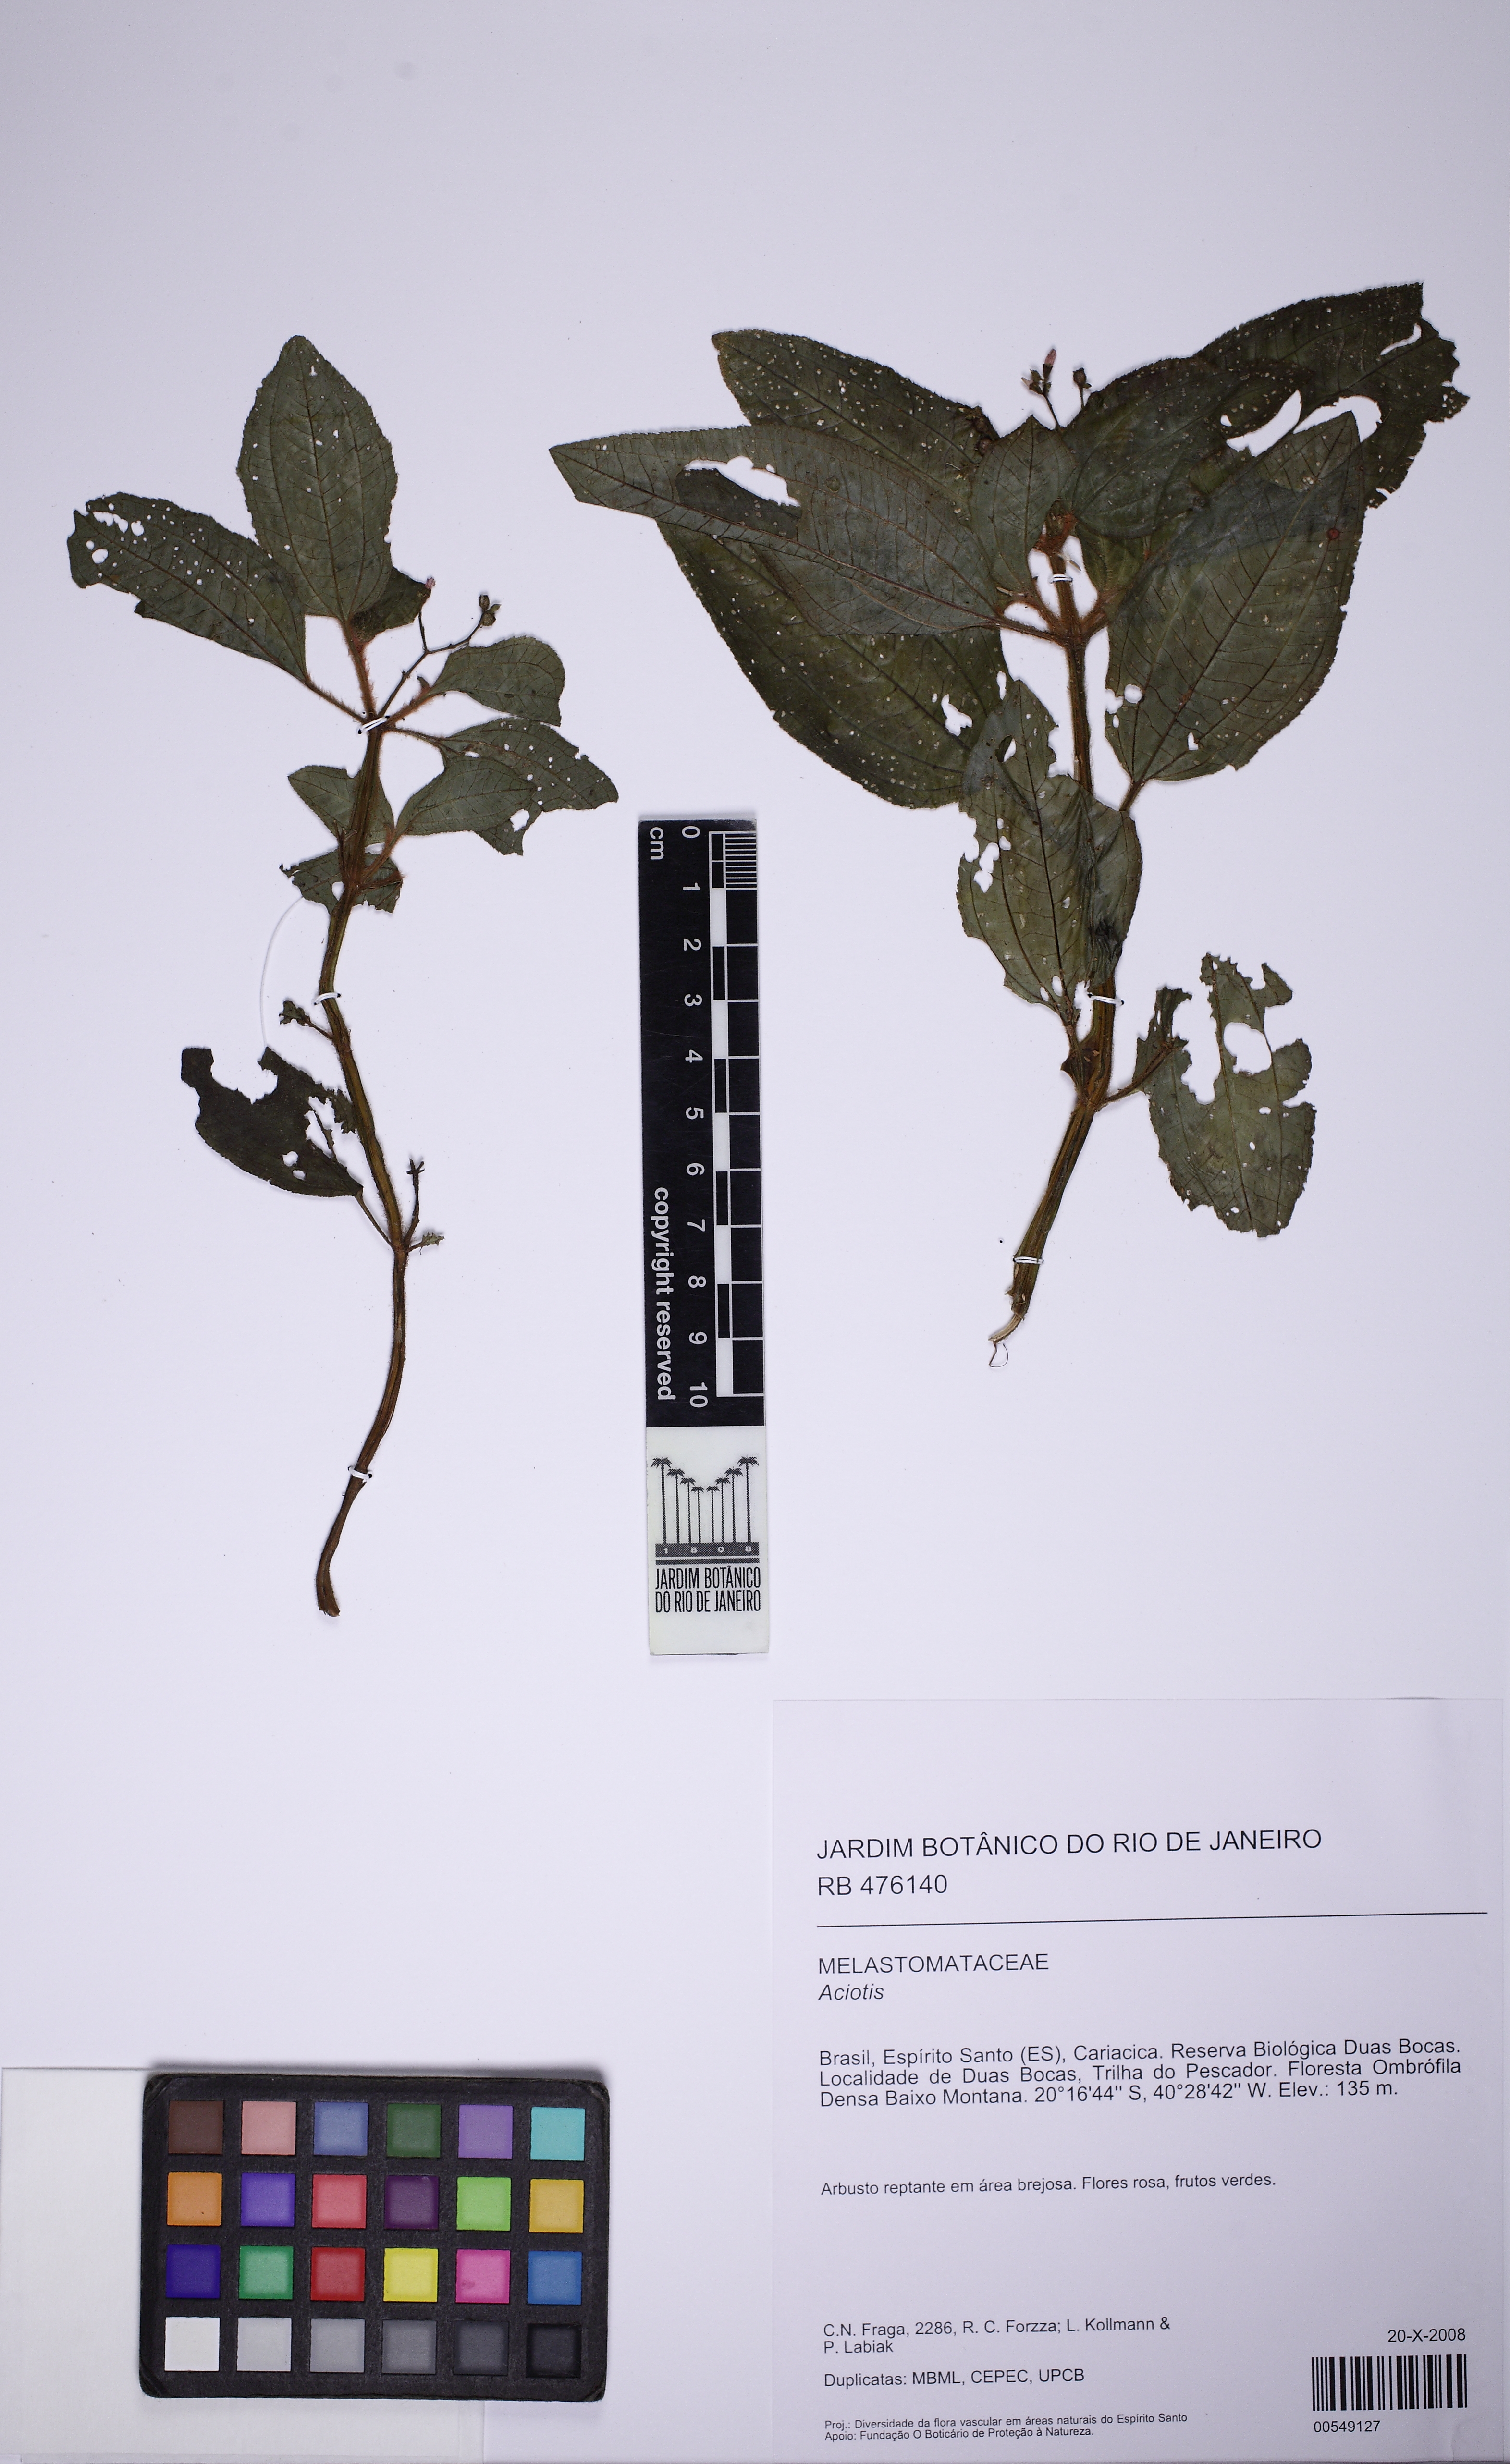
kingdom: Plantae
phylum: Tracheophyta
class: Magnoliopsida
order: Myrtales
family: Melastomataceae
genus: Aciotis
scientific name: Aciotis paludosa
